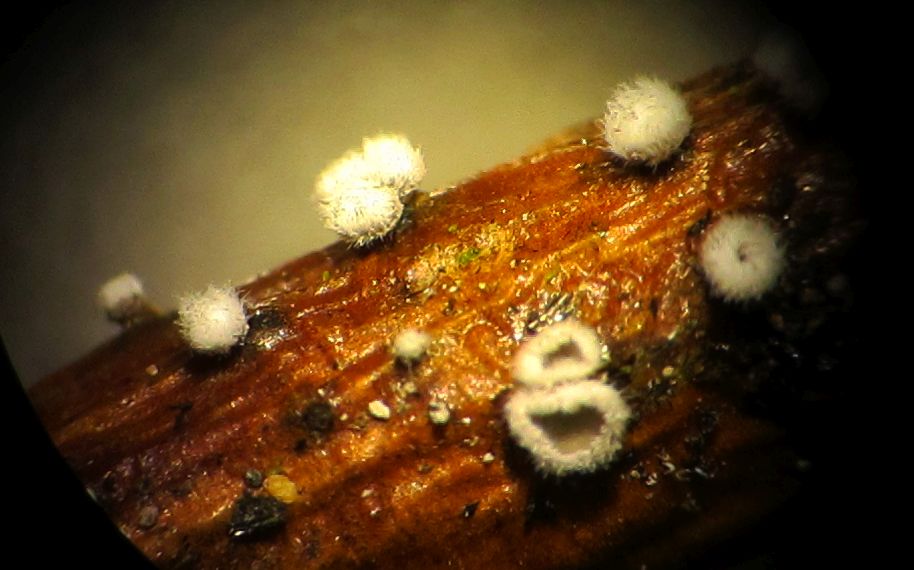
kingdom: Fungi
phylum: Basidiomycota
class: Agaricomycetes
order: Agaricales
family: Niaceae
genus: Lachnella
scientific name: Lachnella alboviolascens
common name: grå frynserede
